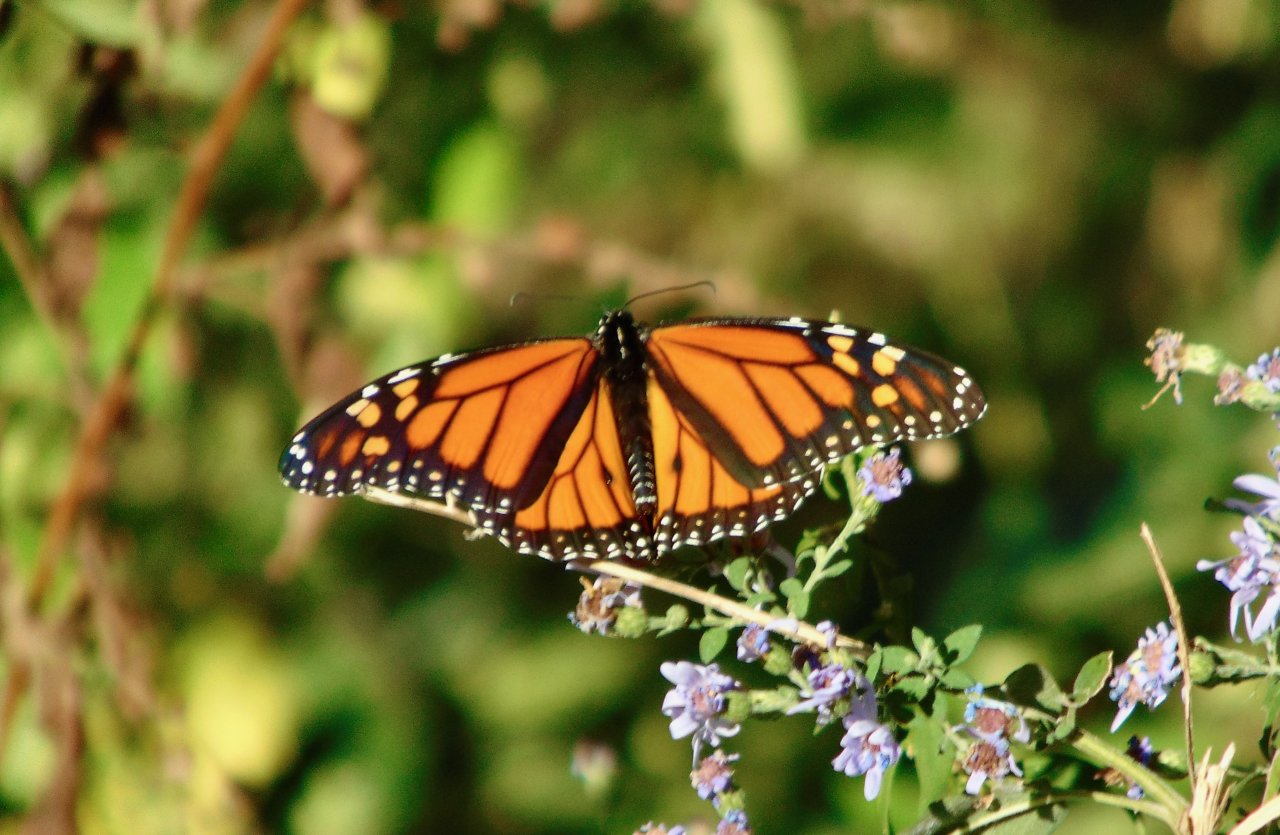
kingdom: Animalia
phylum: Arthropoda
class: Insecta
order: Lepidoptera
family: Nymphalidae
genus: Danaus
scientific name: Danaus plexippus
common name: Monarch
